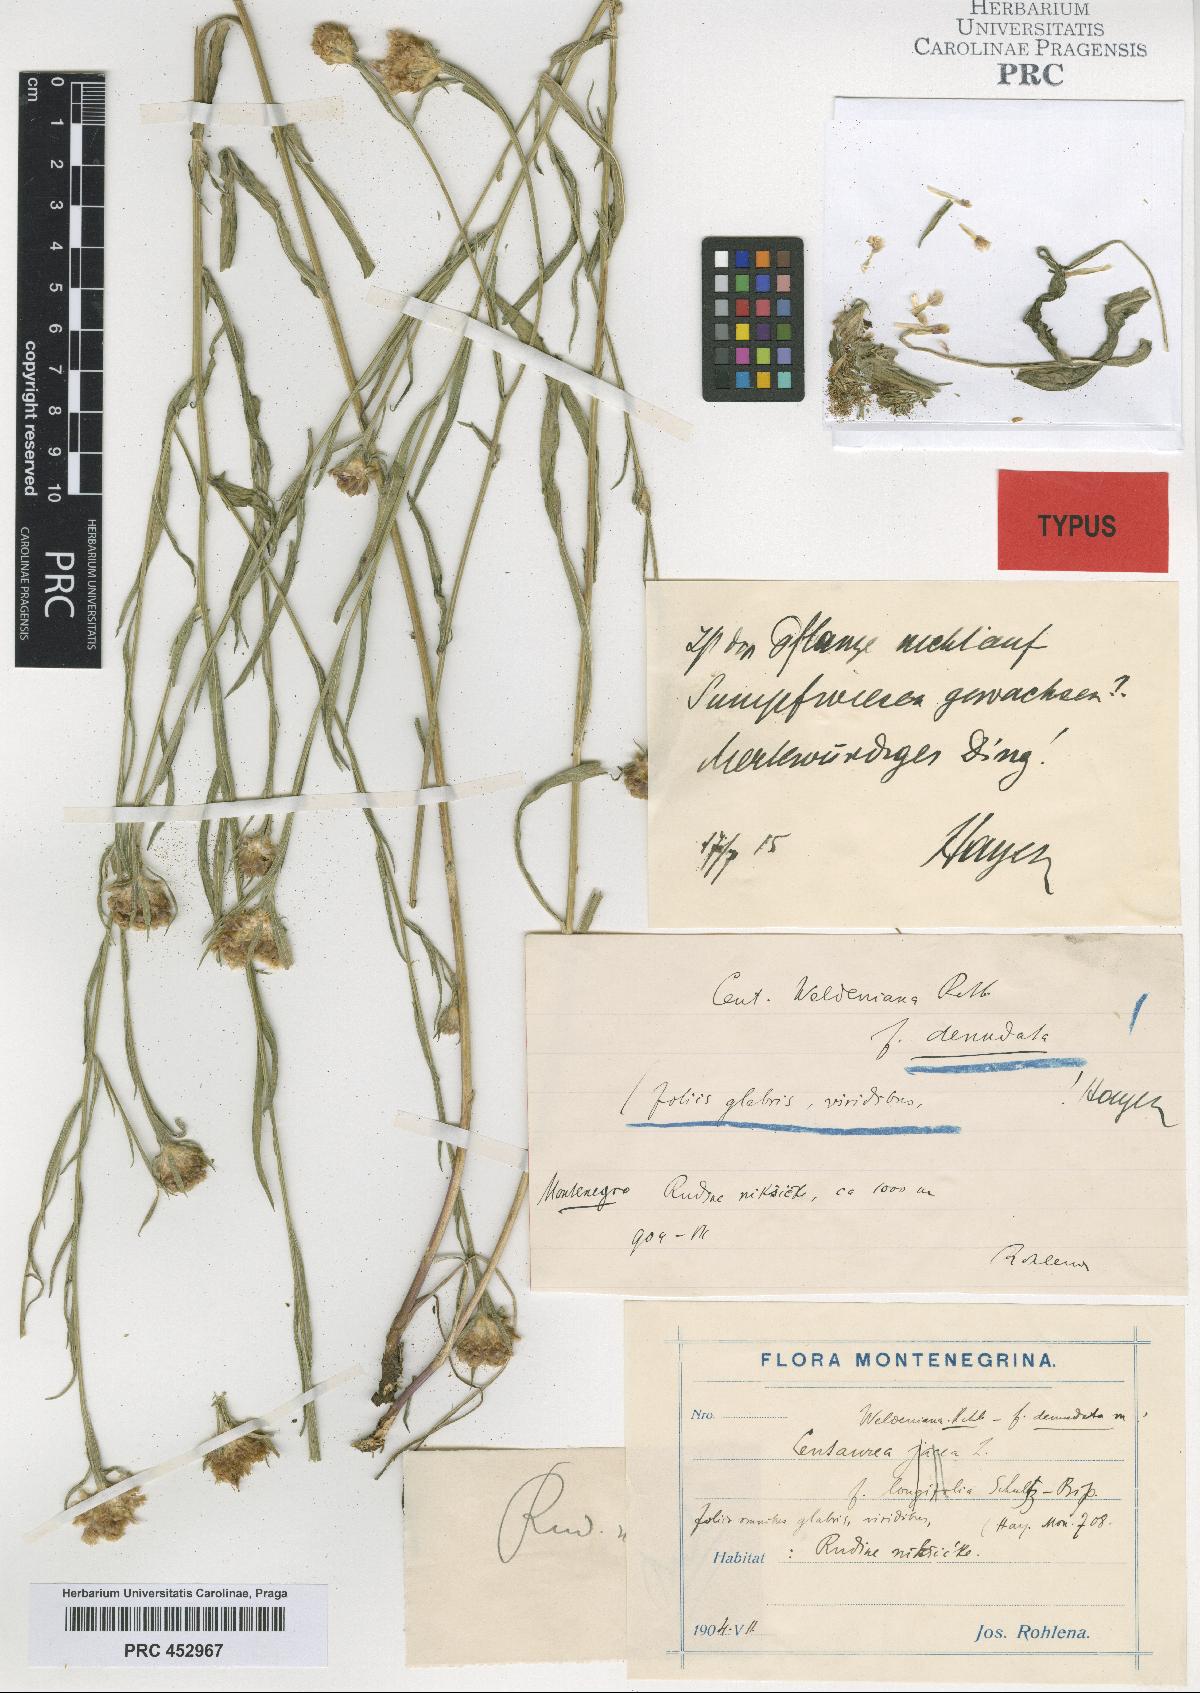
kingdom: Plantae
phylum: Tracheophyta
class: Magnoliopsida
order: Asterales
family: Asteraceae
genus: Centaurea
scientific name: Centaurea jacea
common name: Brown knapweed
